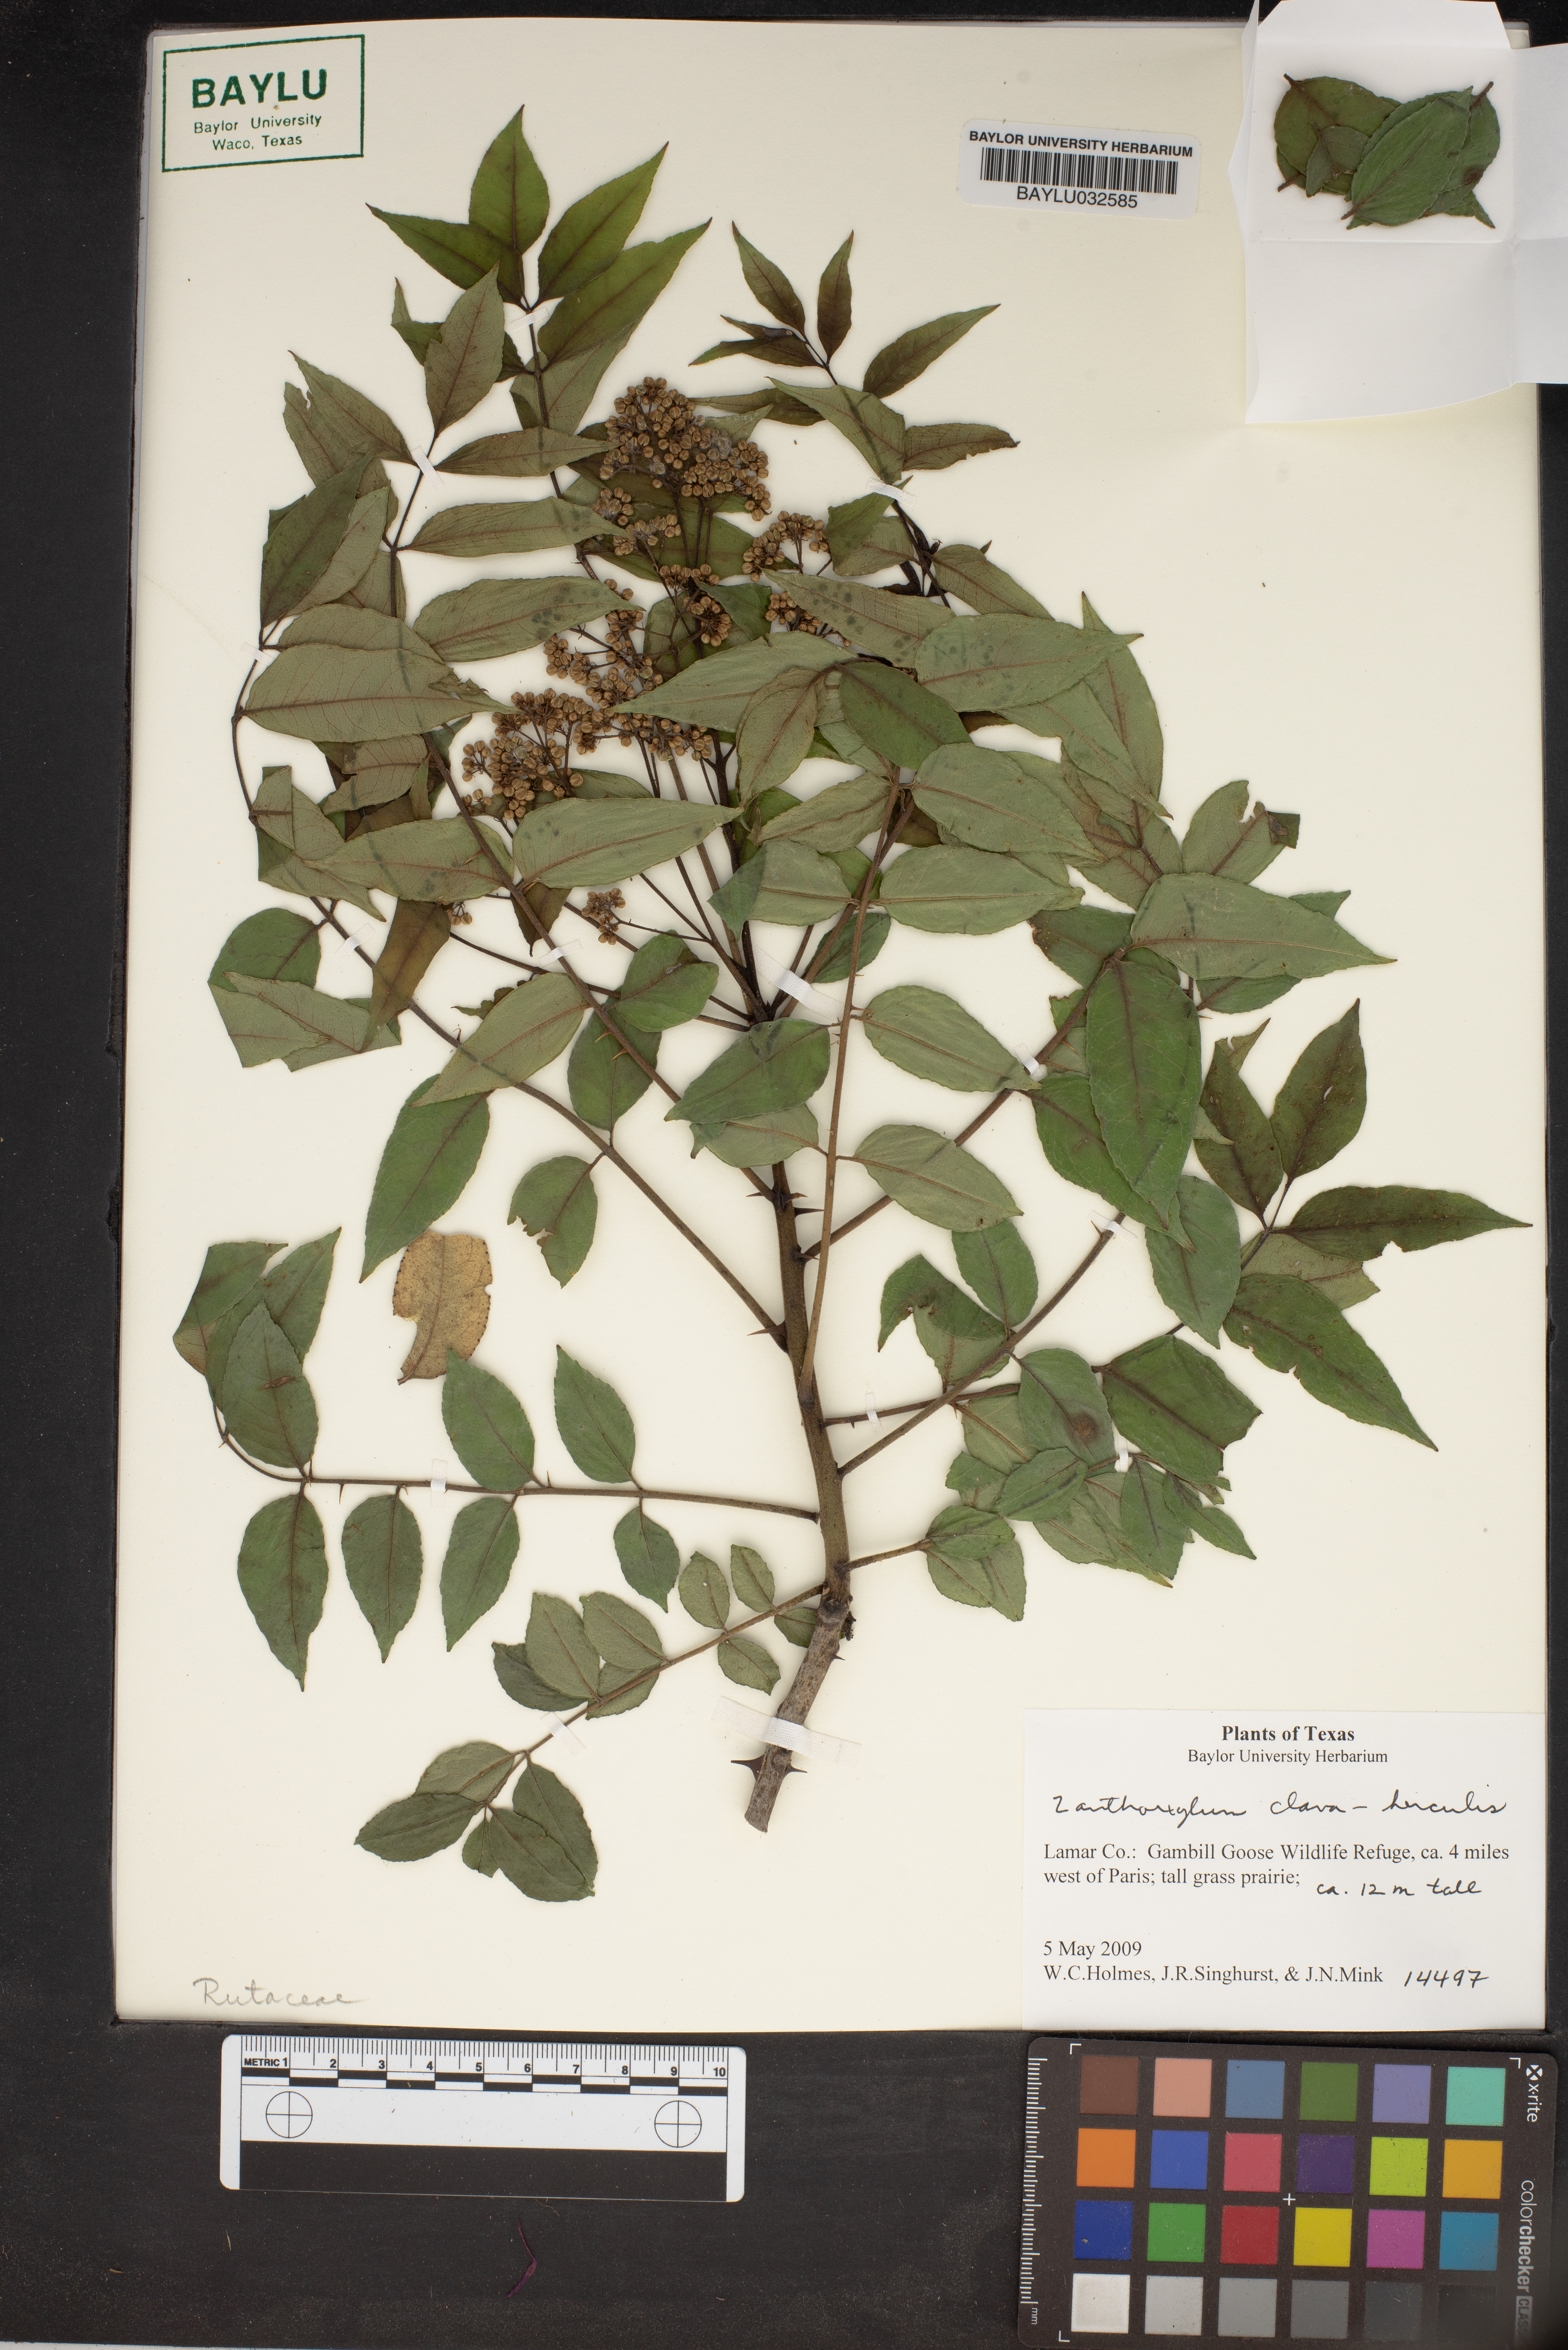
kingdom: Plantae
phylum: Tracheophyta
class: Magnoliopsida
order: Sapindales
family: Rutaceae
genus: Zanthoxylum
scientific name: Zanthoxylum avicennae
